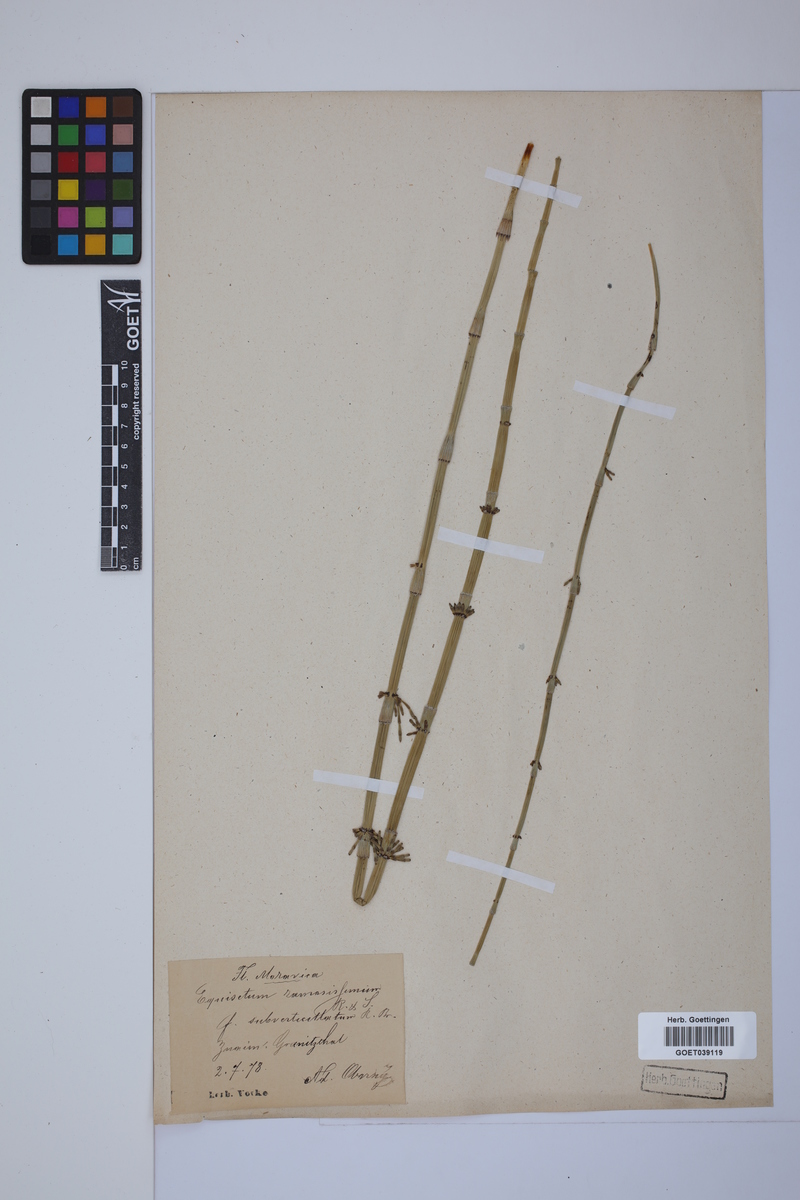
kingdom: Plantae
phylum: Tracheophyta
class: Polypodiopsida
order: Equisetales
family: Equisetaceae
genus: Equisetum
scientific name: Equisetum giganteum
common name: Giant horsetail
